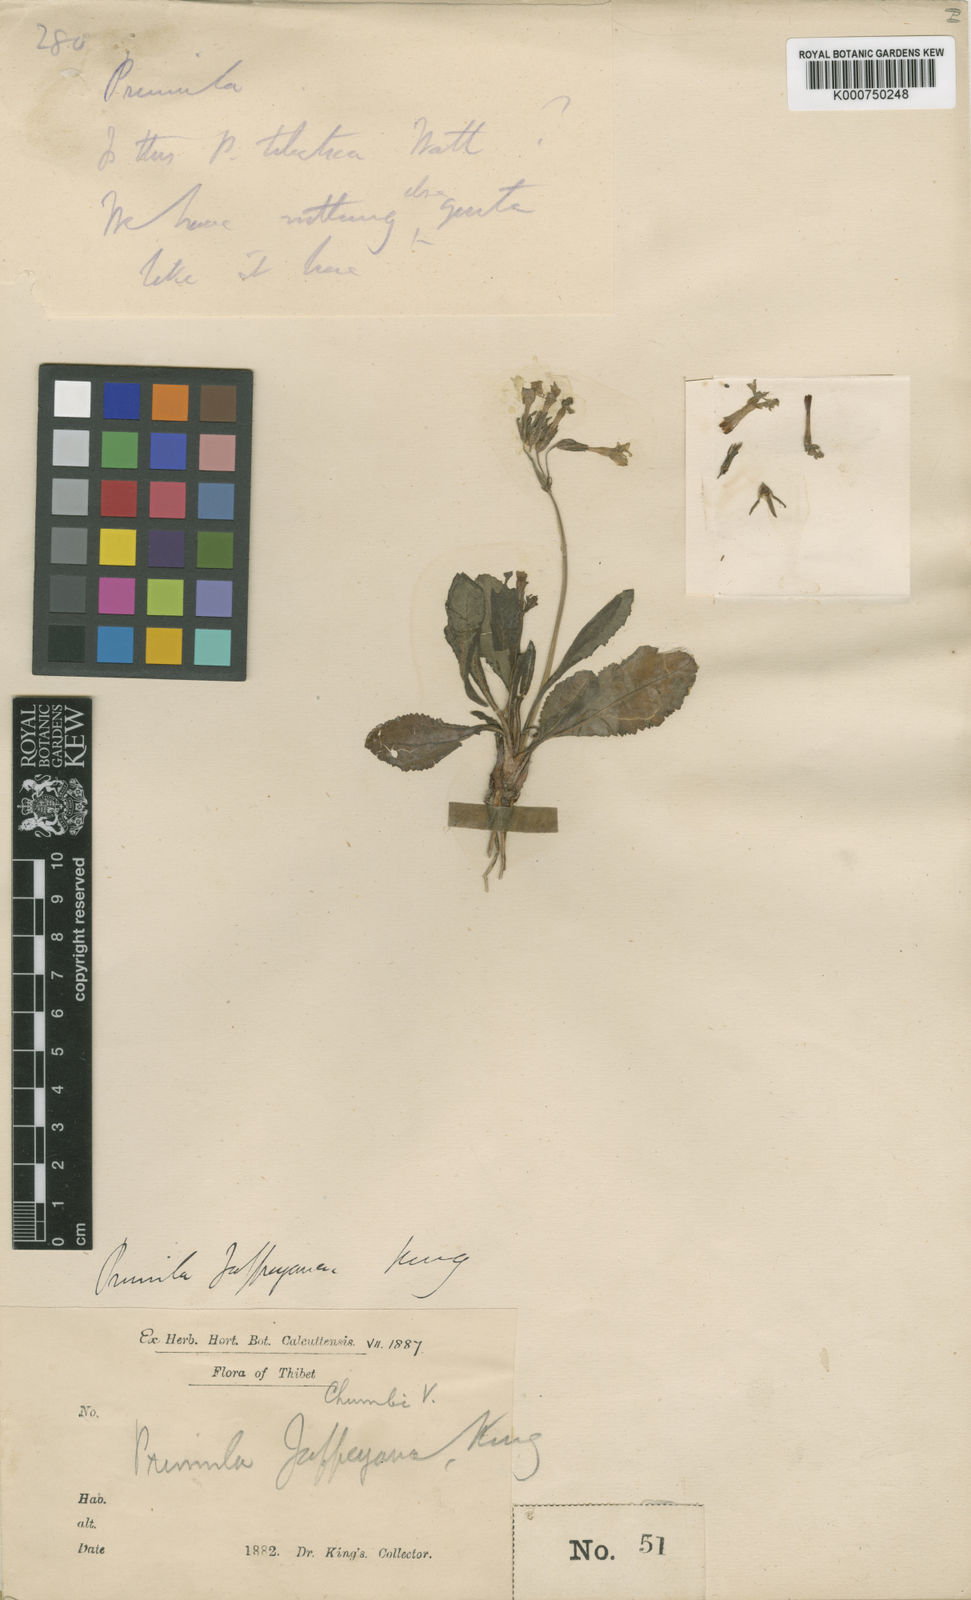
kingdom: Plantae
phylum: Tracheophyta
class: Magnoliopsida
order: Ericales
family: Primulaceae
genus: Primula
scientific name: Primula jaffreyana
